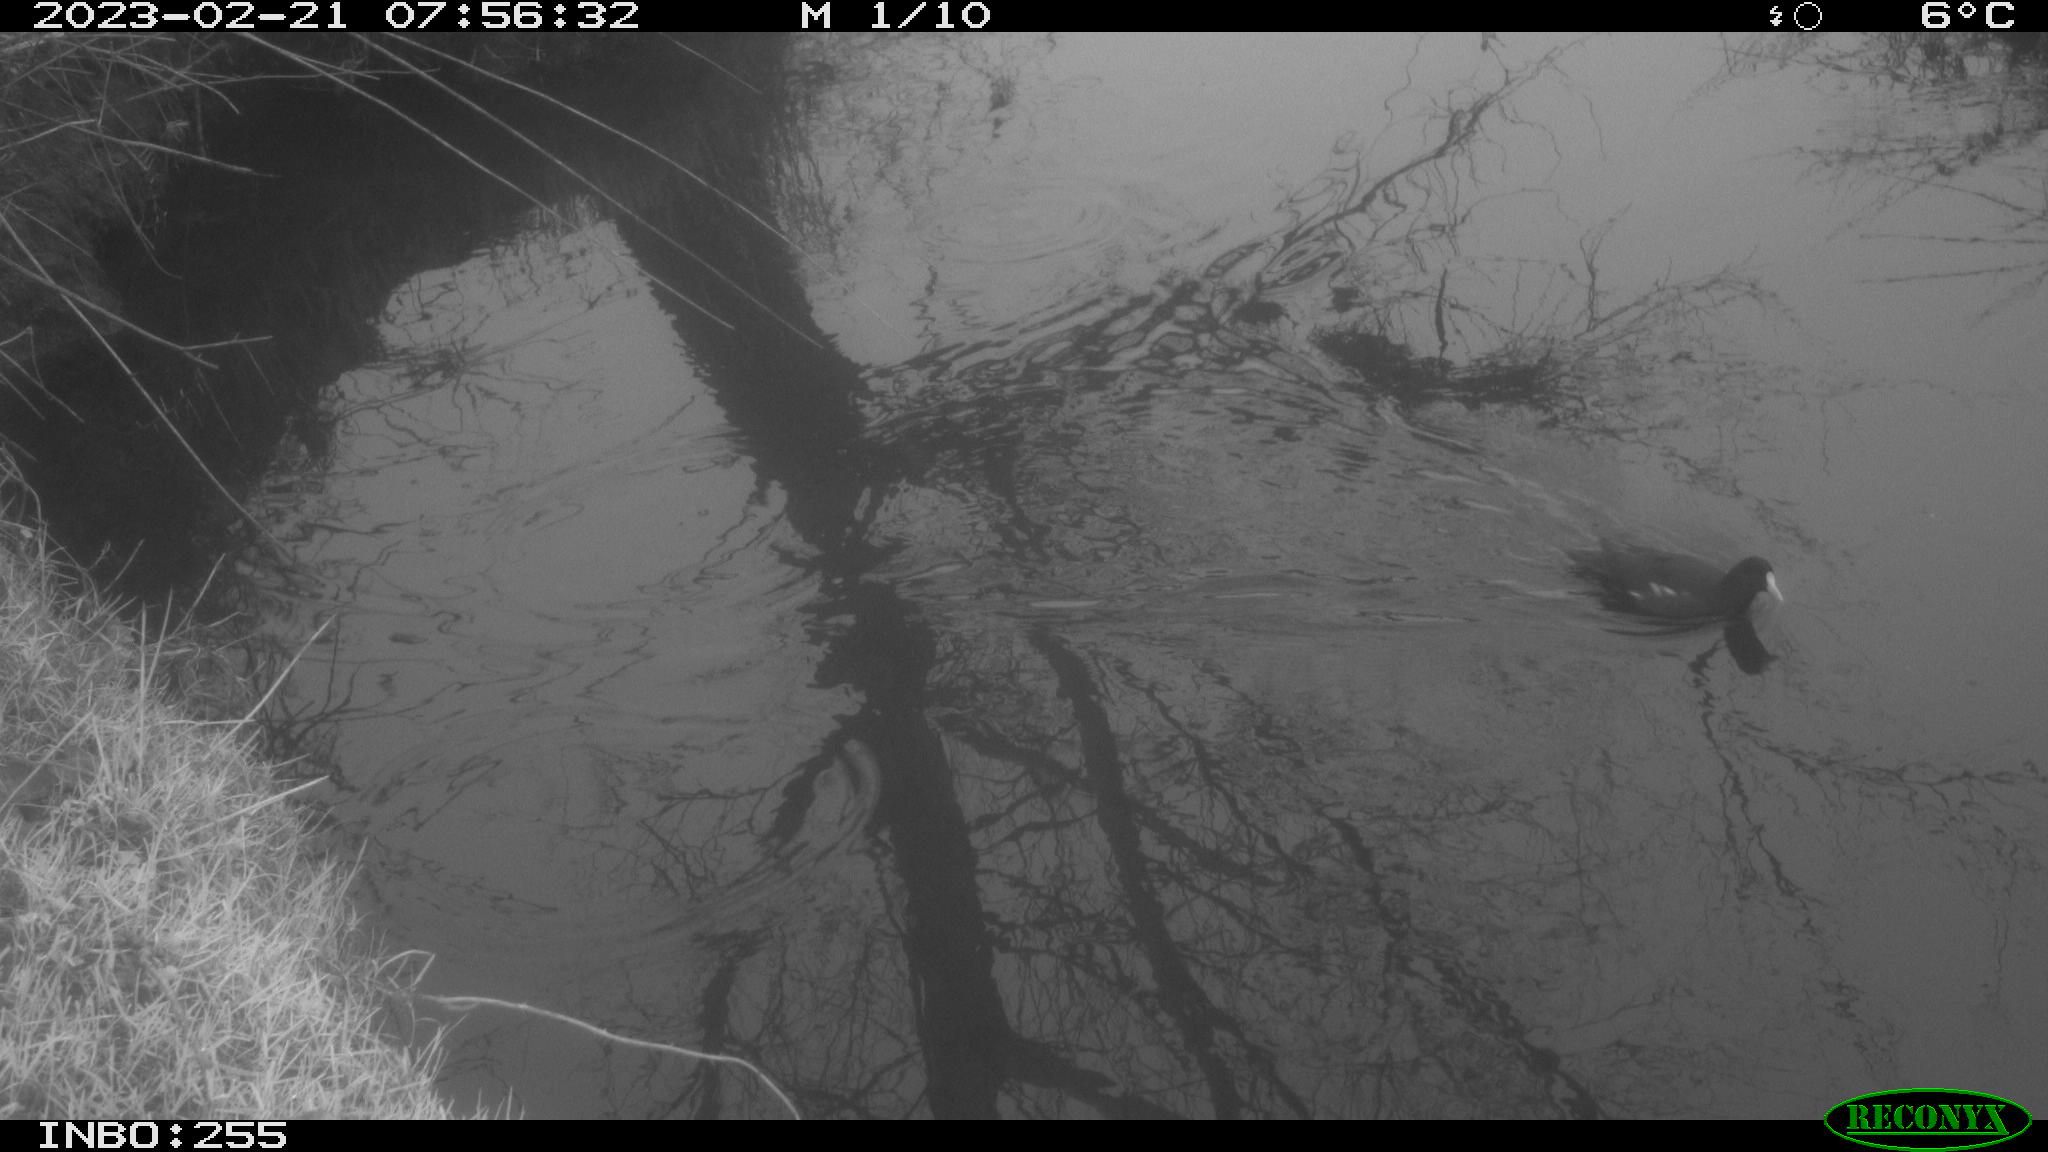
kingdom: Animalia
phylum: Chordata
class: Aves
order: Gruiformes
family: Rallidae
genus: Gallinula
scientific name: Gallinula chloropus
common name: Common moorhen
